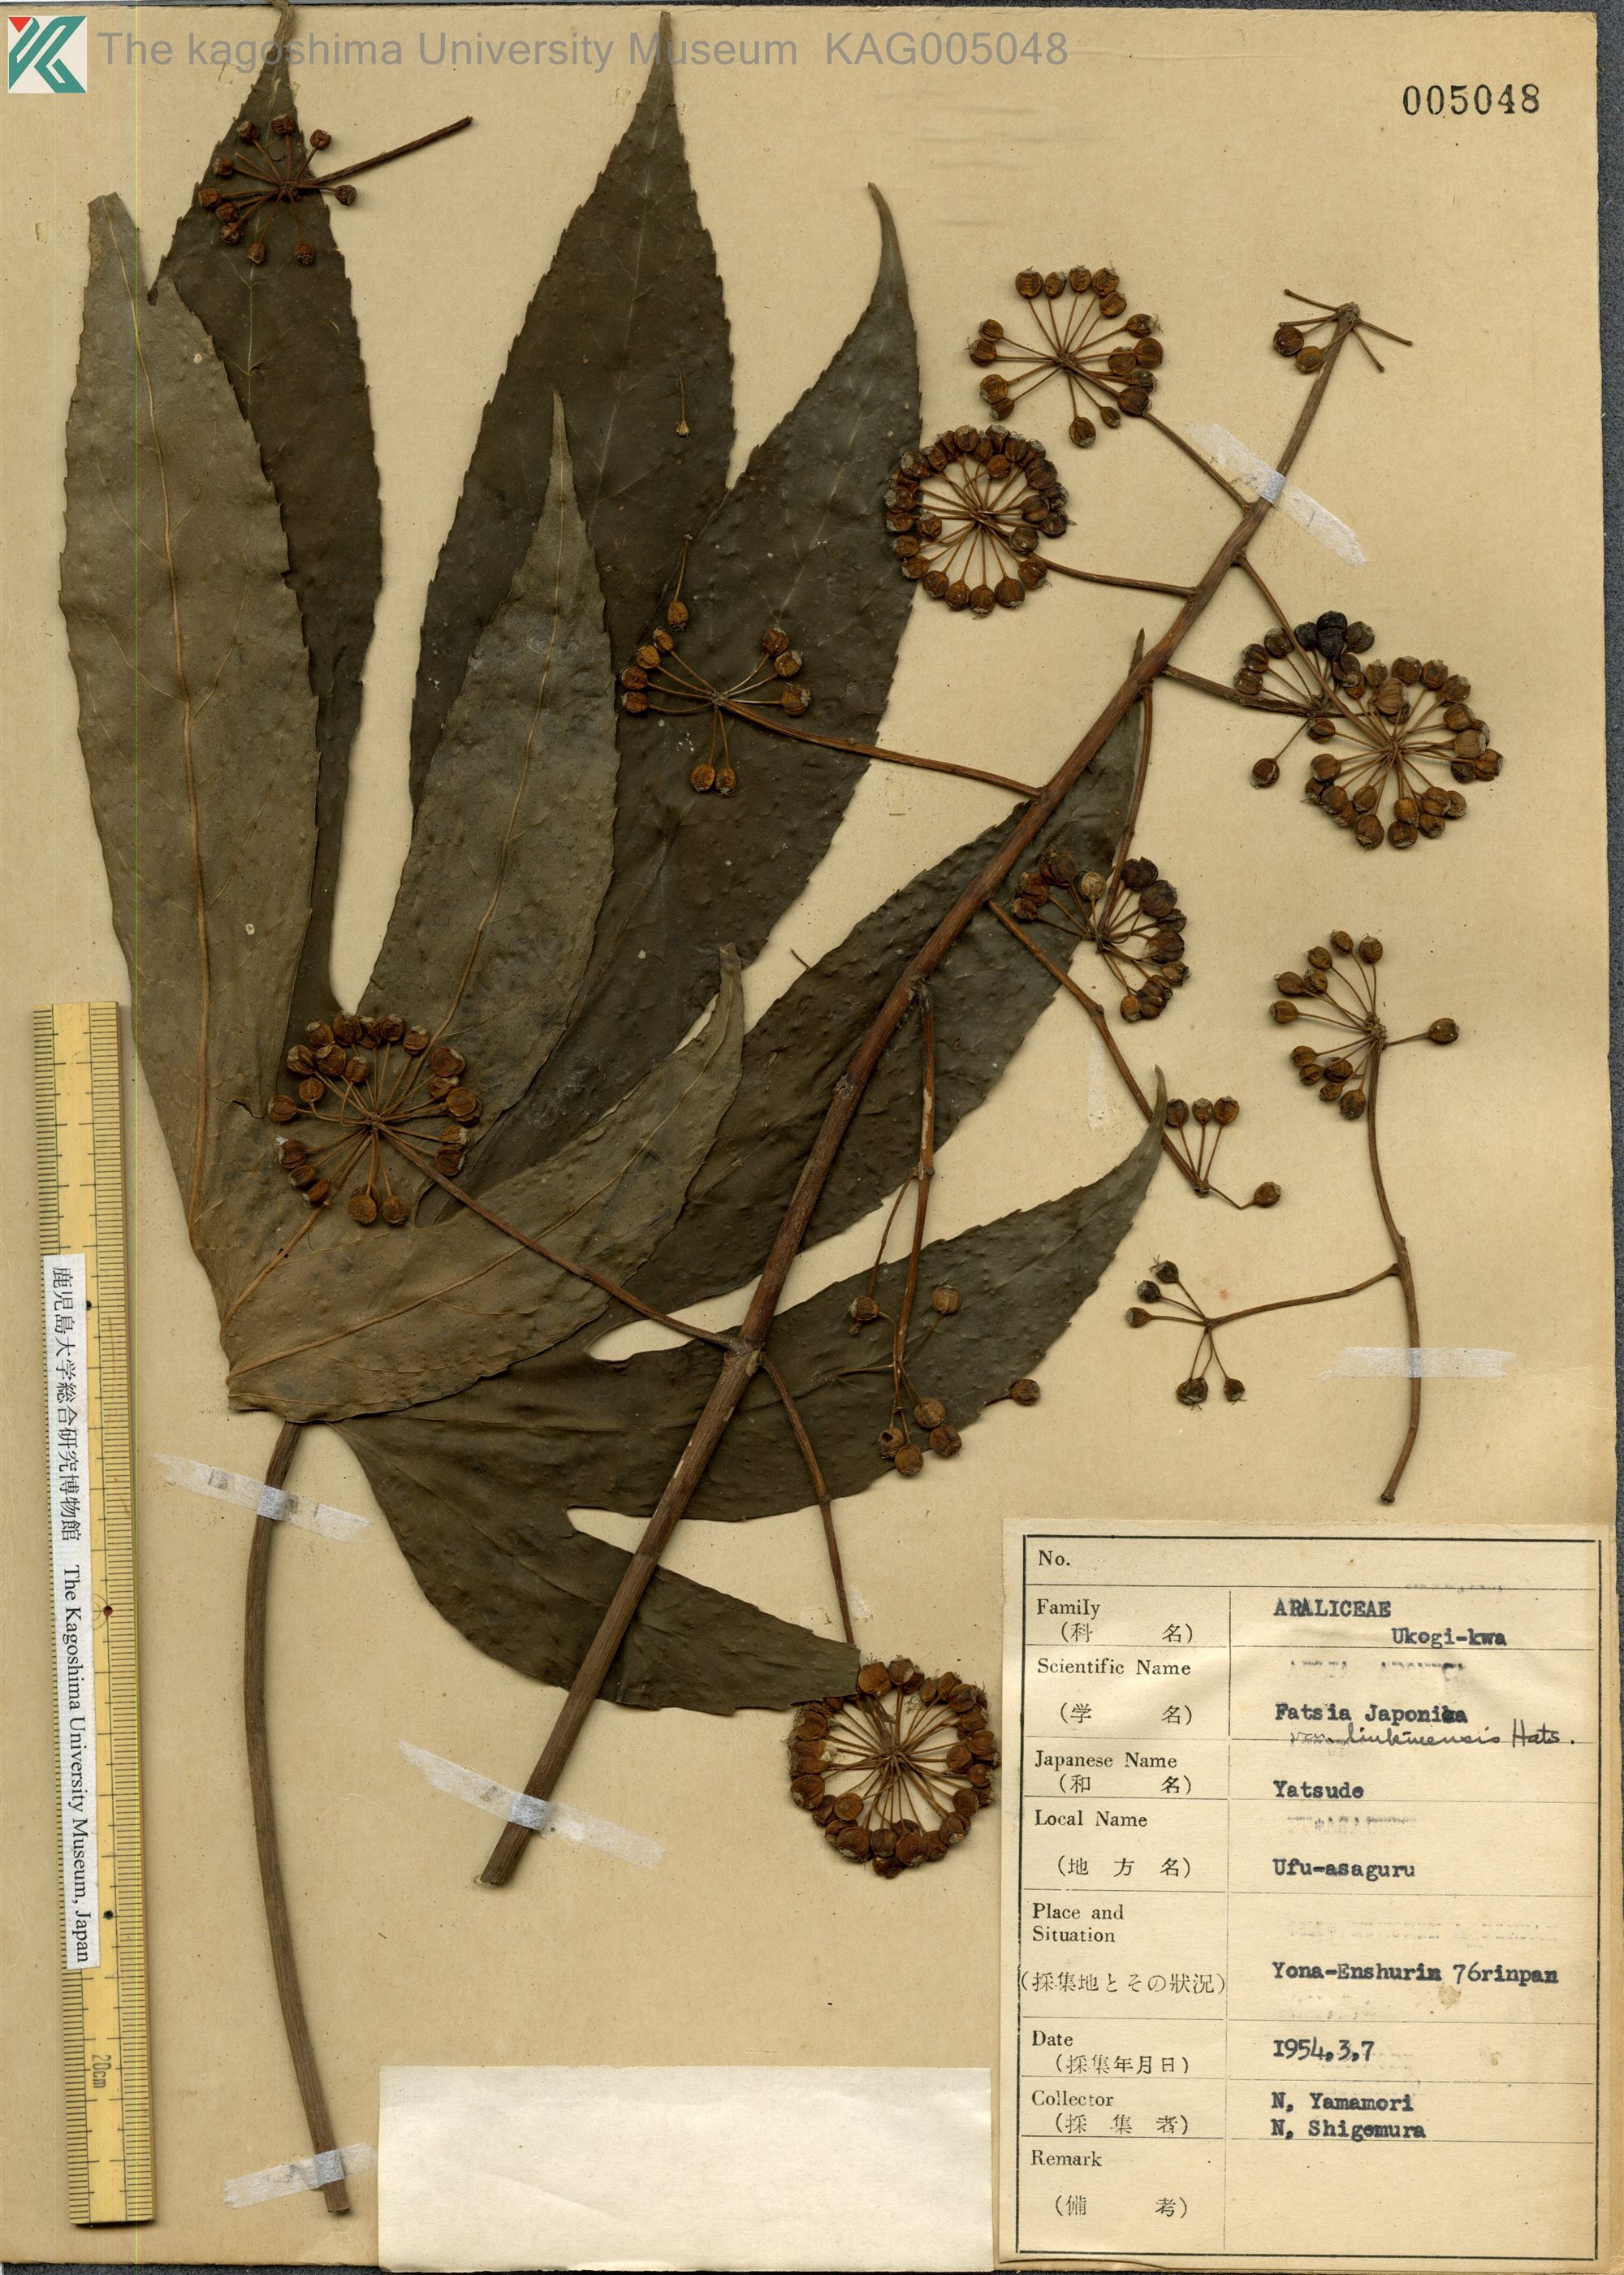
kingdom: Plantae
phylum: Tracheophyta
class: Magnoliopsida
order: Apiales
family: Araliaceae
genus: Fatsia
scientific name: Fatsia japonica
